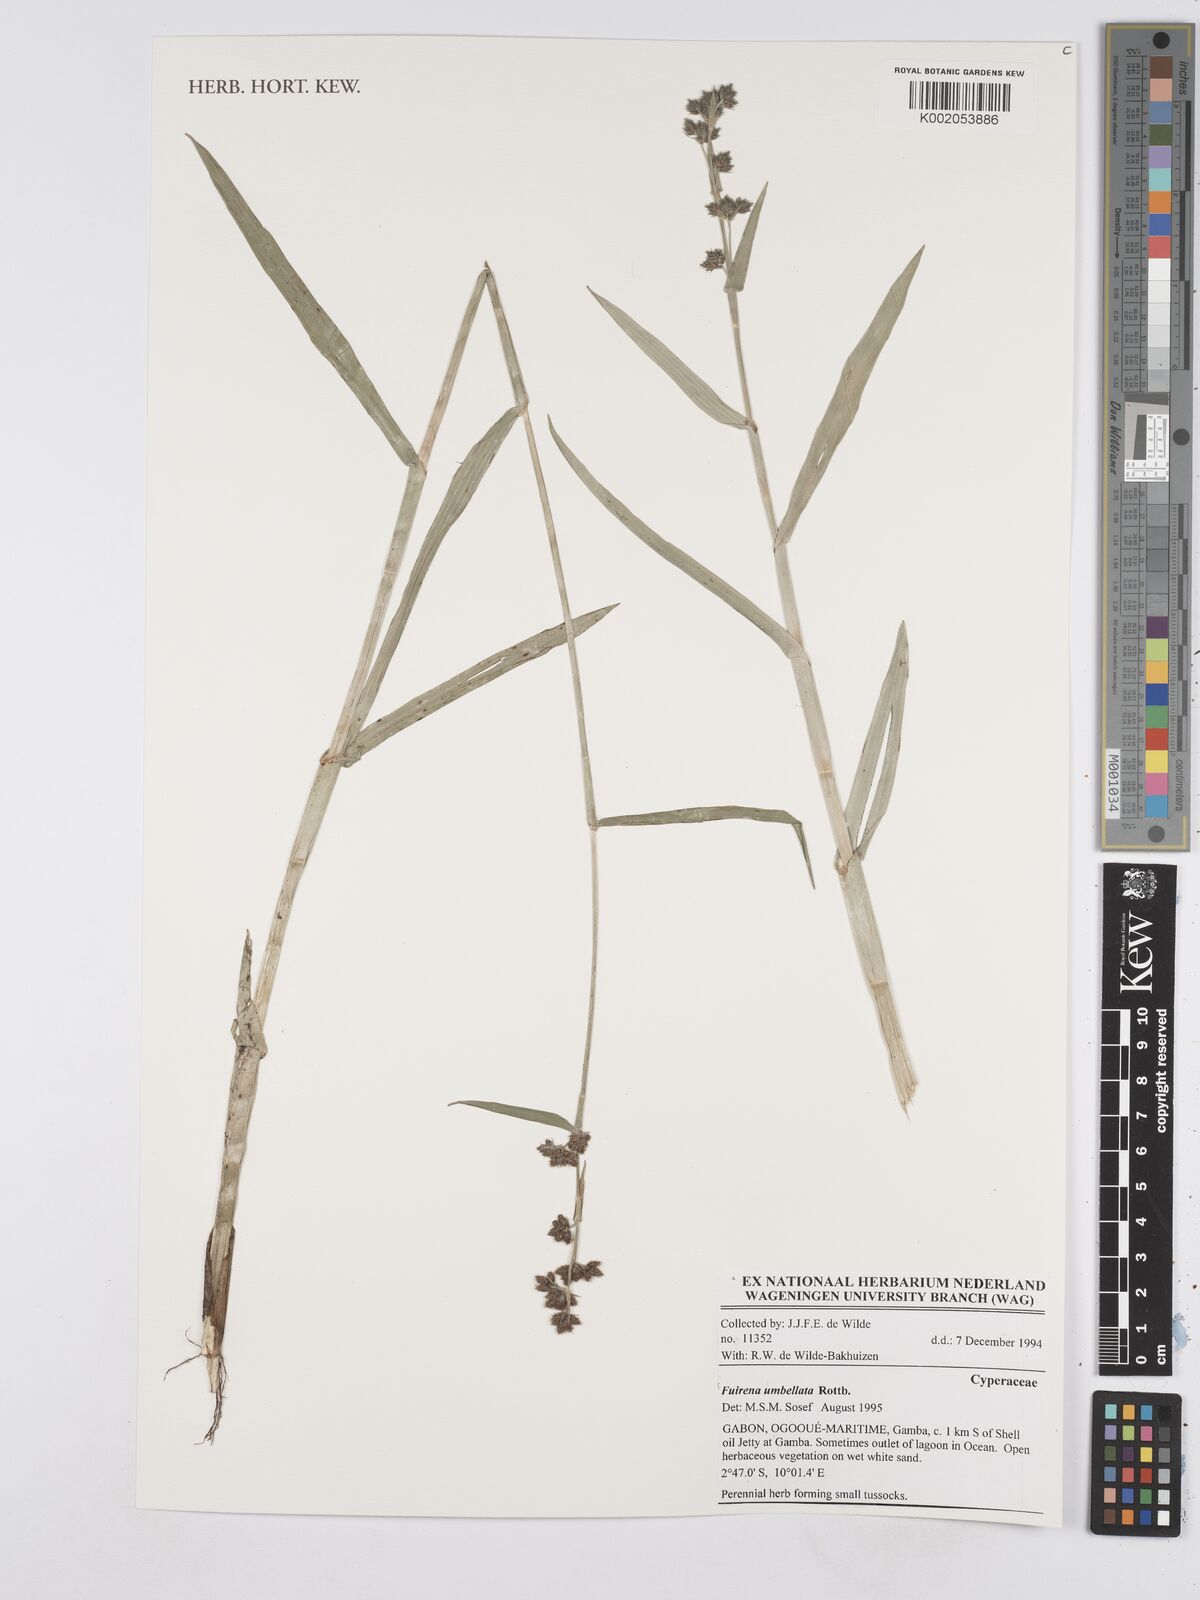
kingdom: Plantae
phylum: Tracheophyta
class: Liliopsida
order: Poales
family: Cyperaceae
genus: Fuirena
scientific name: Fuirena umbellata
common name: Yefen
